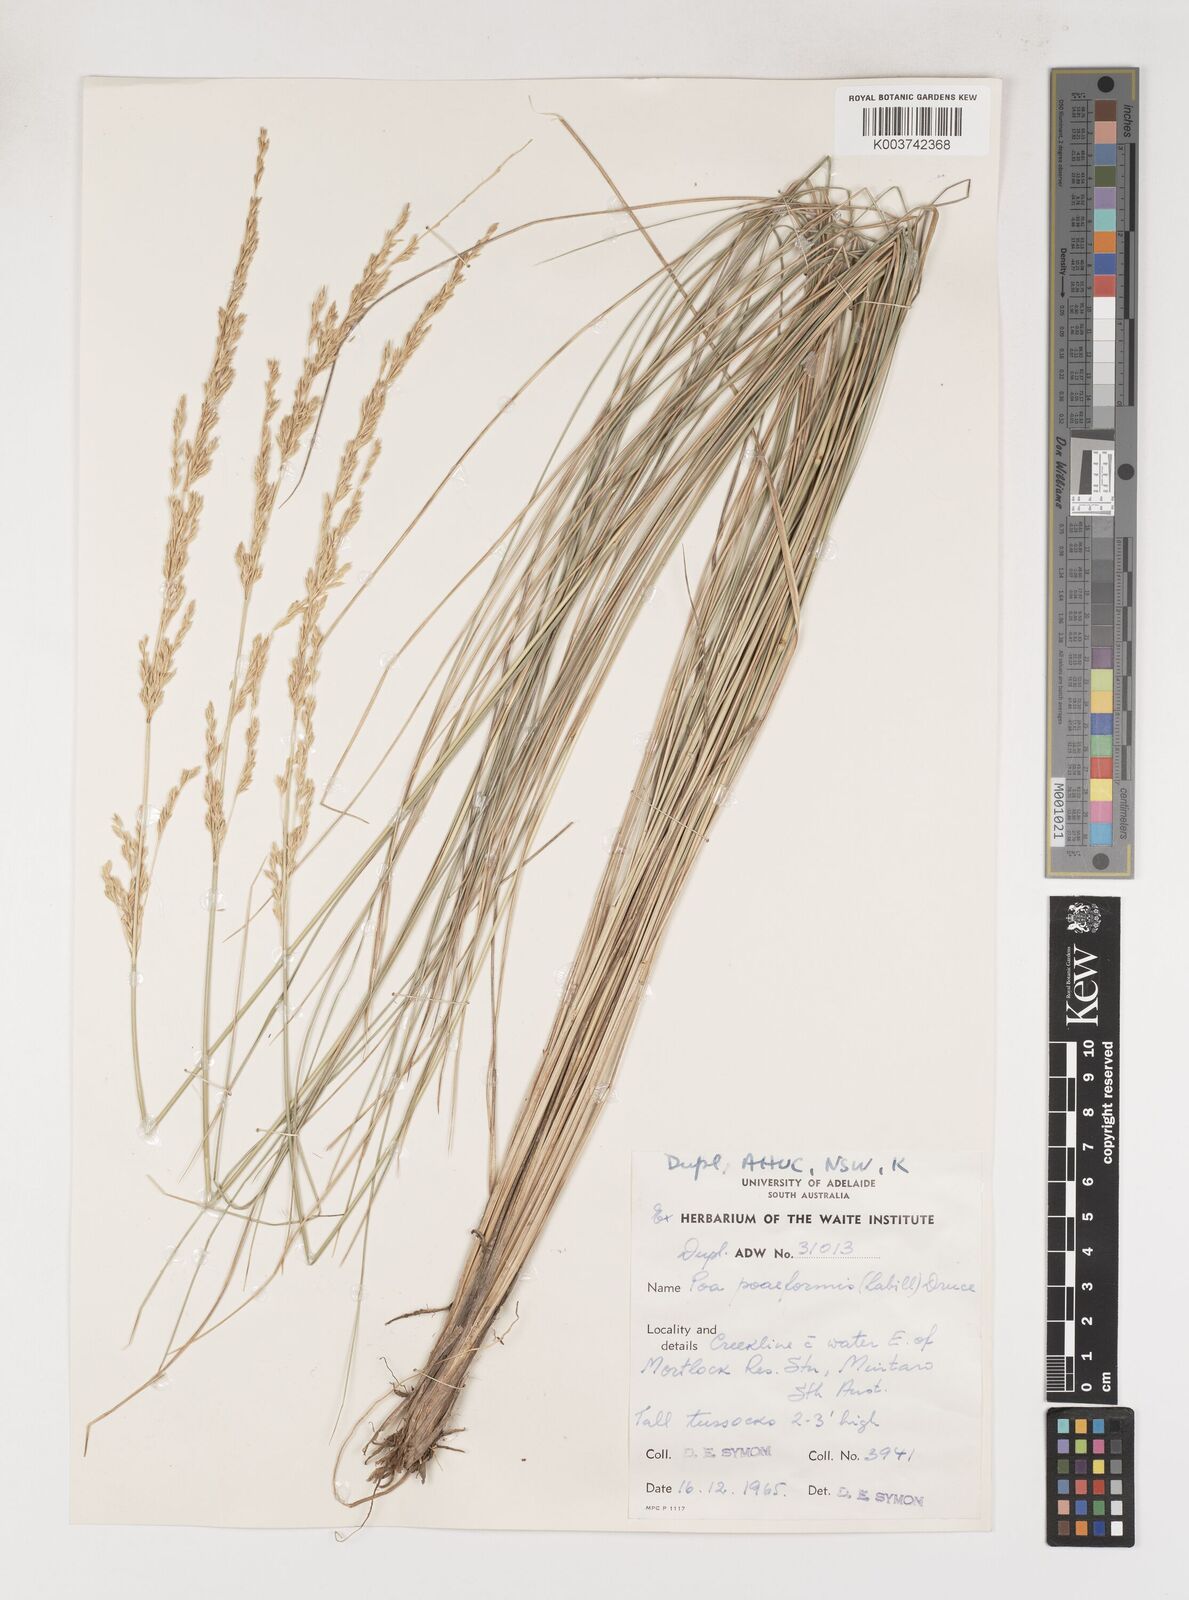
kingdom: Plantae
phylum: Tracheophyta
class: Liliopsida
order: Poales
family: Poaceae
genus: Poa
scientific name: Poa poiformis
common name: Tussock poa
